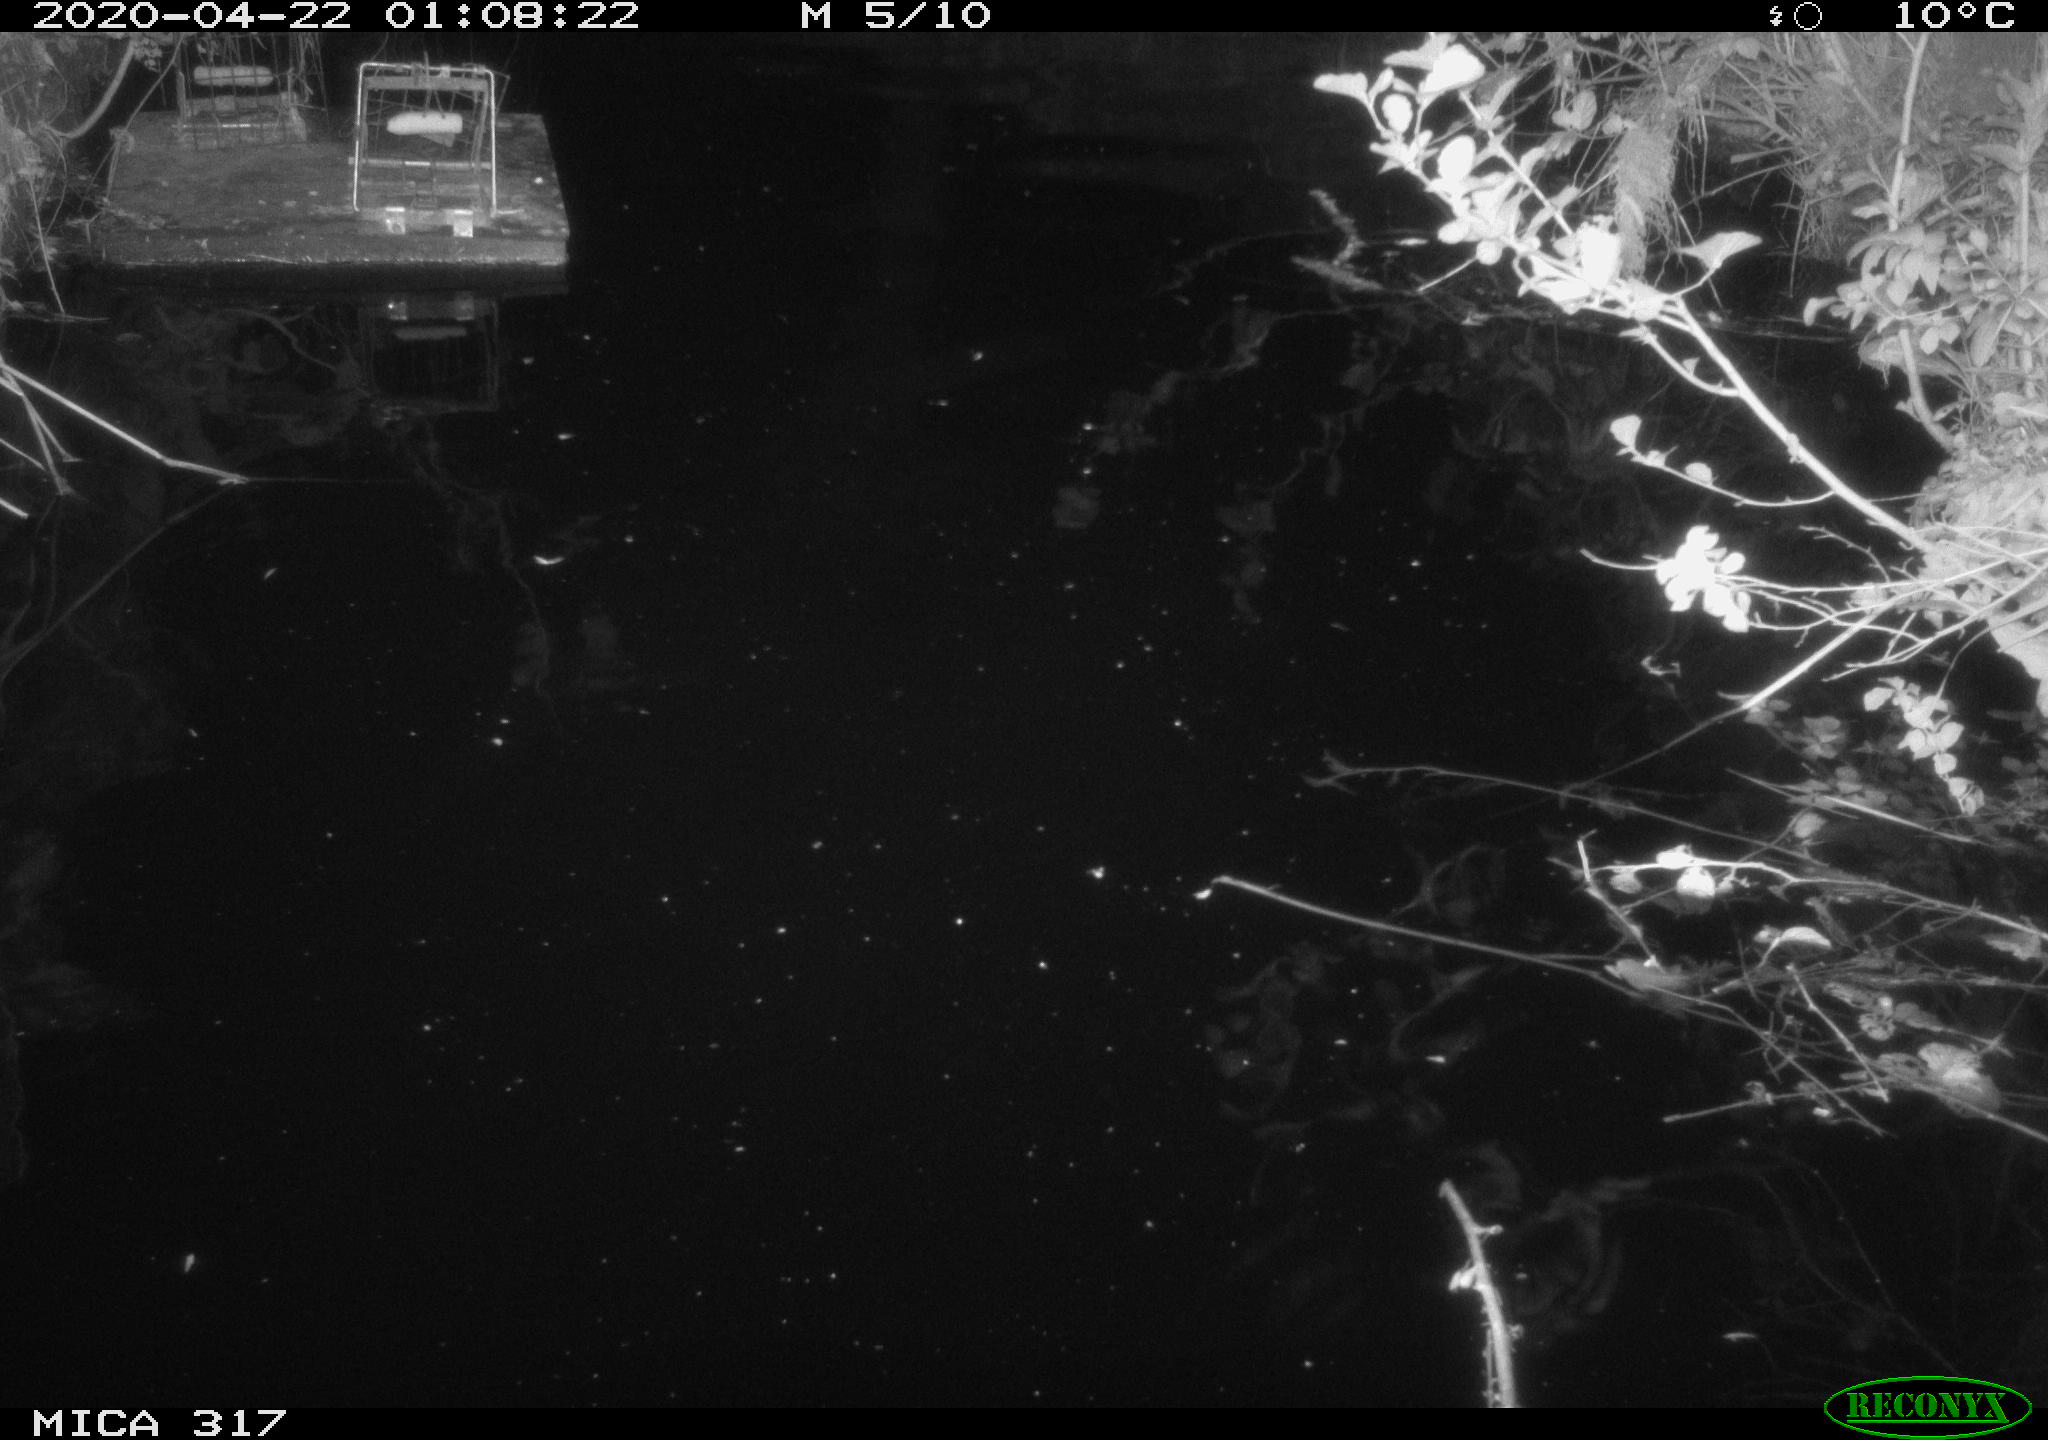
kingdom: Animalia
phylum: Chordata
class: Aves
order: Anseriformes
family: Anatidae
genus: Anas
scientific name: Anas platyrhynchos
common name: Mallard
